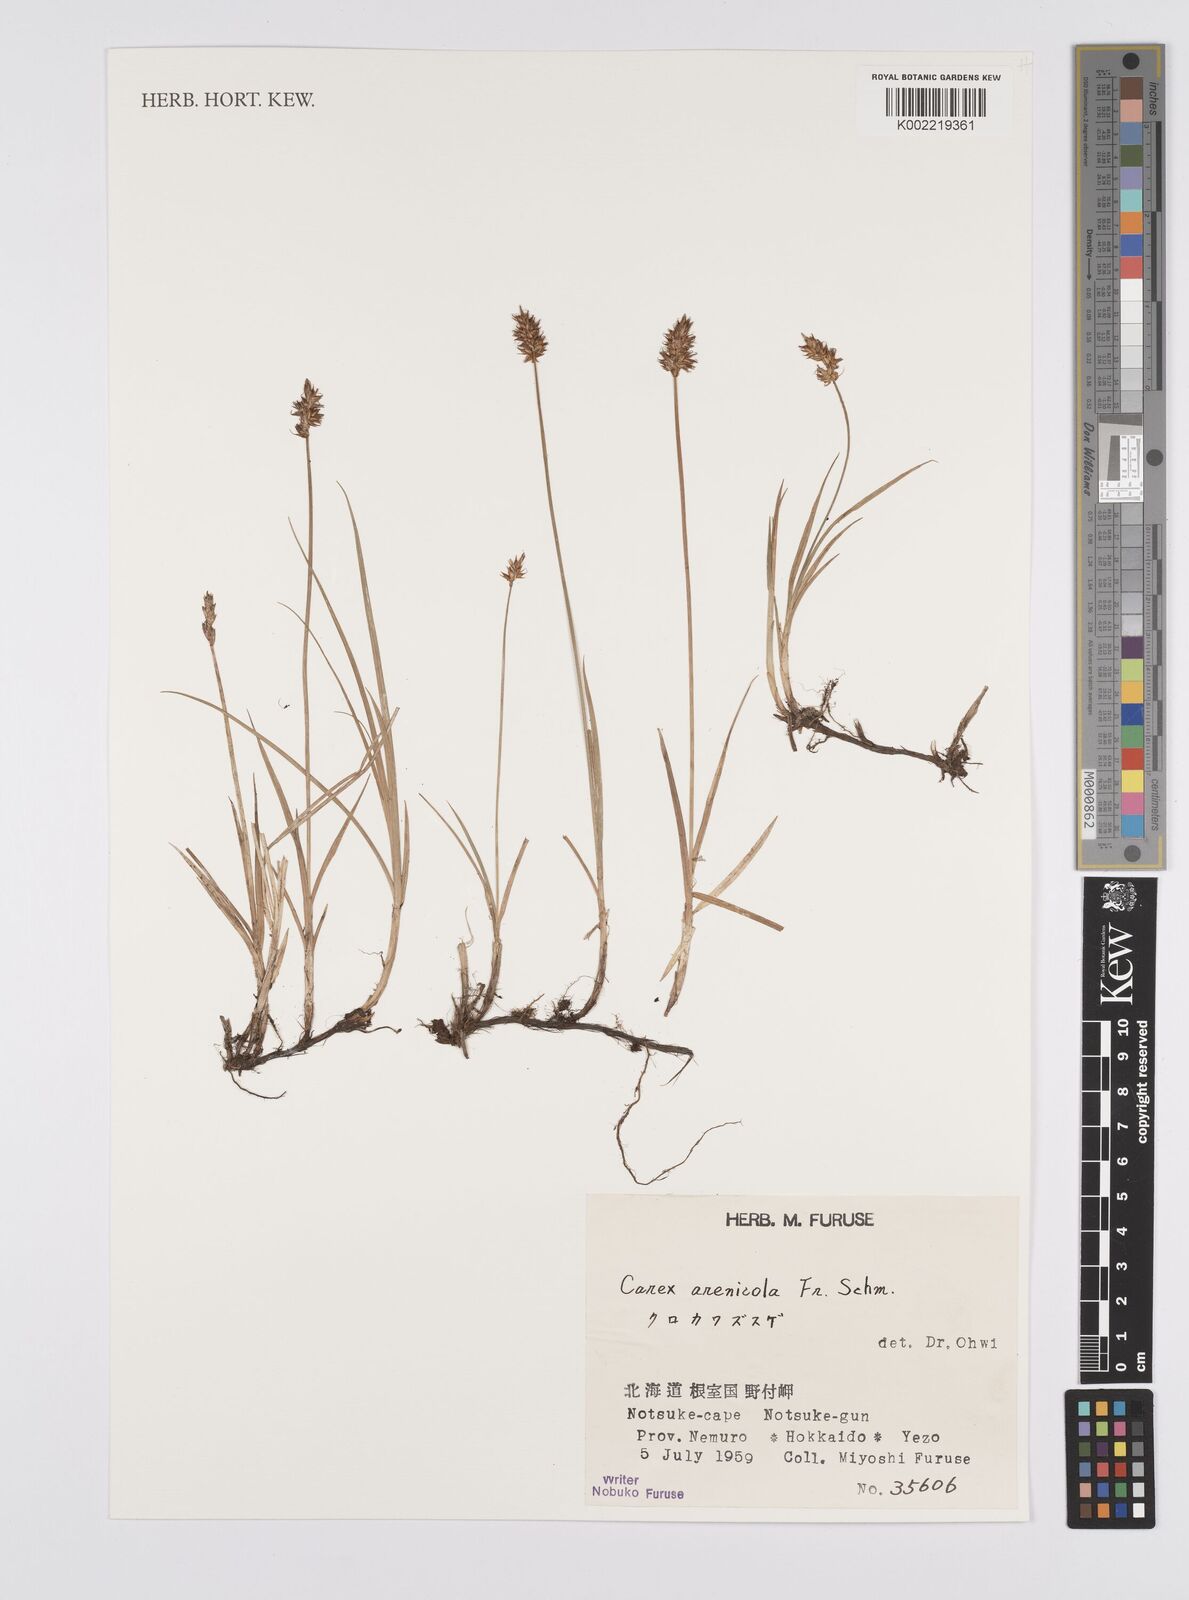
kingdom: Plantae
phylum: Tracheophyta
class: Liliopsida
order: Poales
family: Cyperaceae
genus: Carex
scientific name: Carex arenicola
